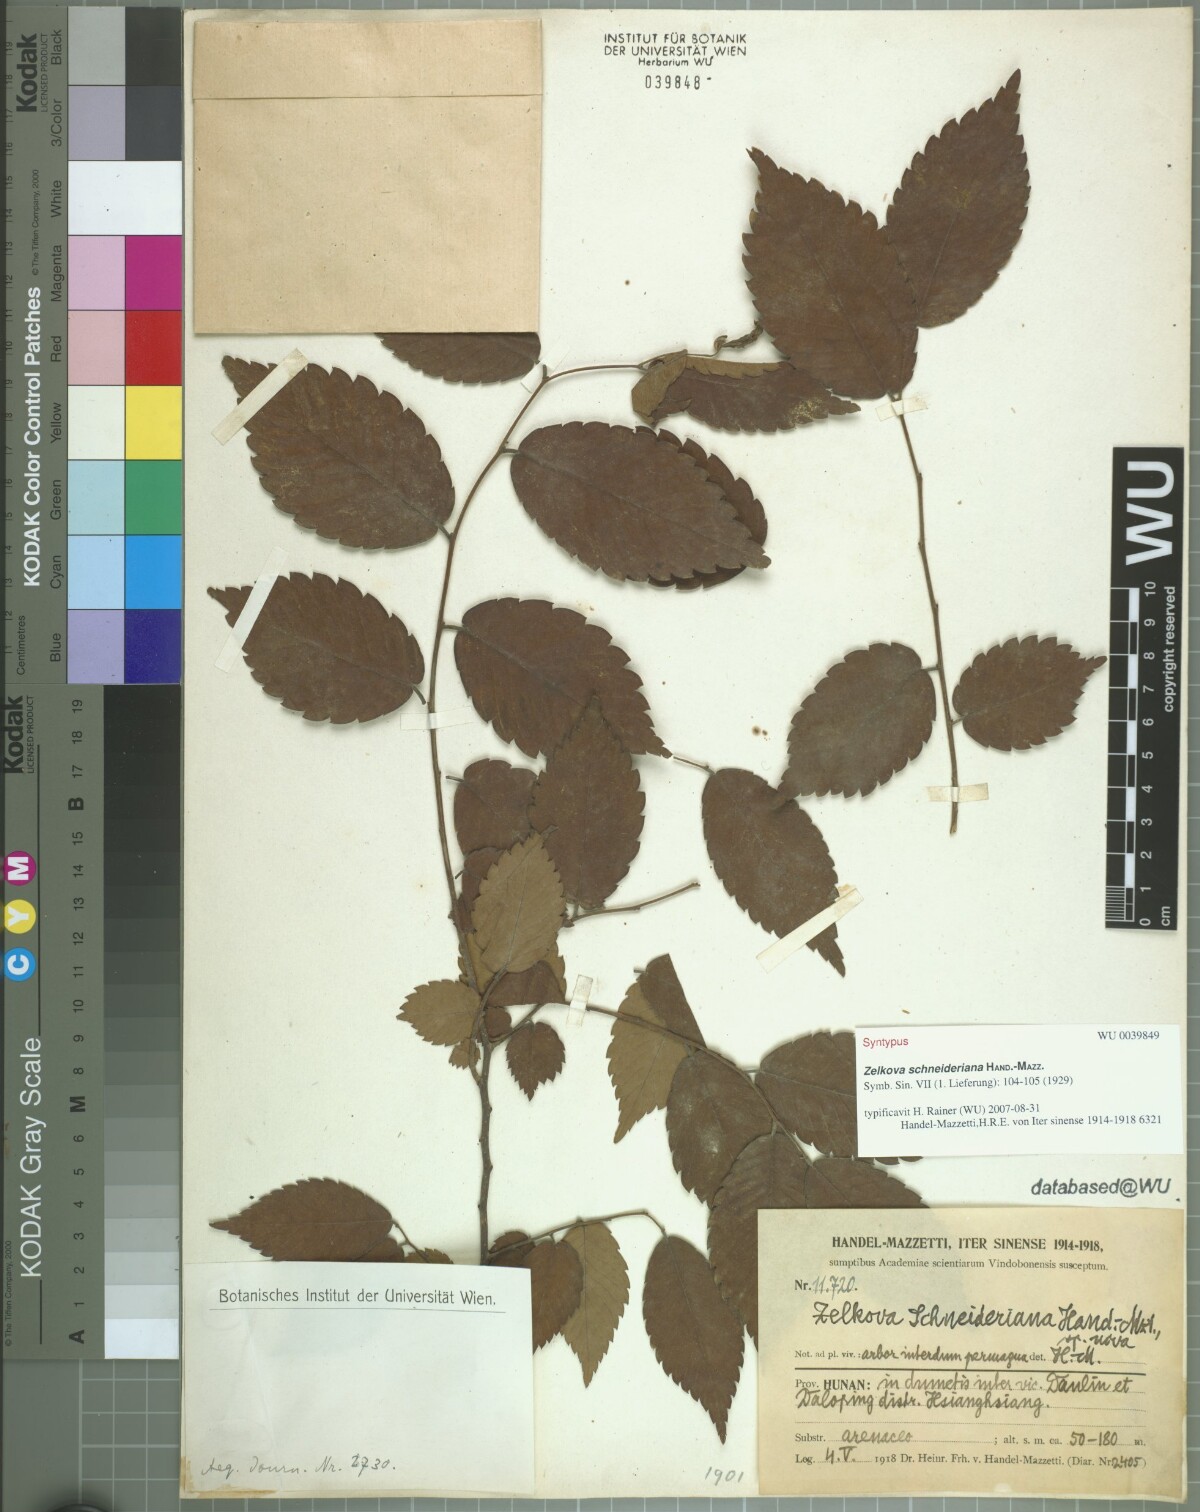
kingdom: Plantae
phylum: Tracheophyta
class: Magnoliopsida
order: Rosales
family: Ulmaceae
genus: Zelkova
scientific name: Zelkova schneideriana
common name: Schneider’s zelkova
